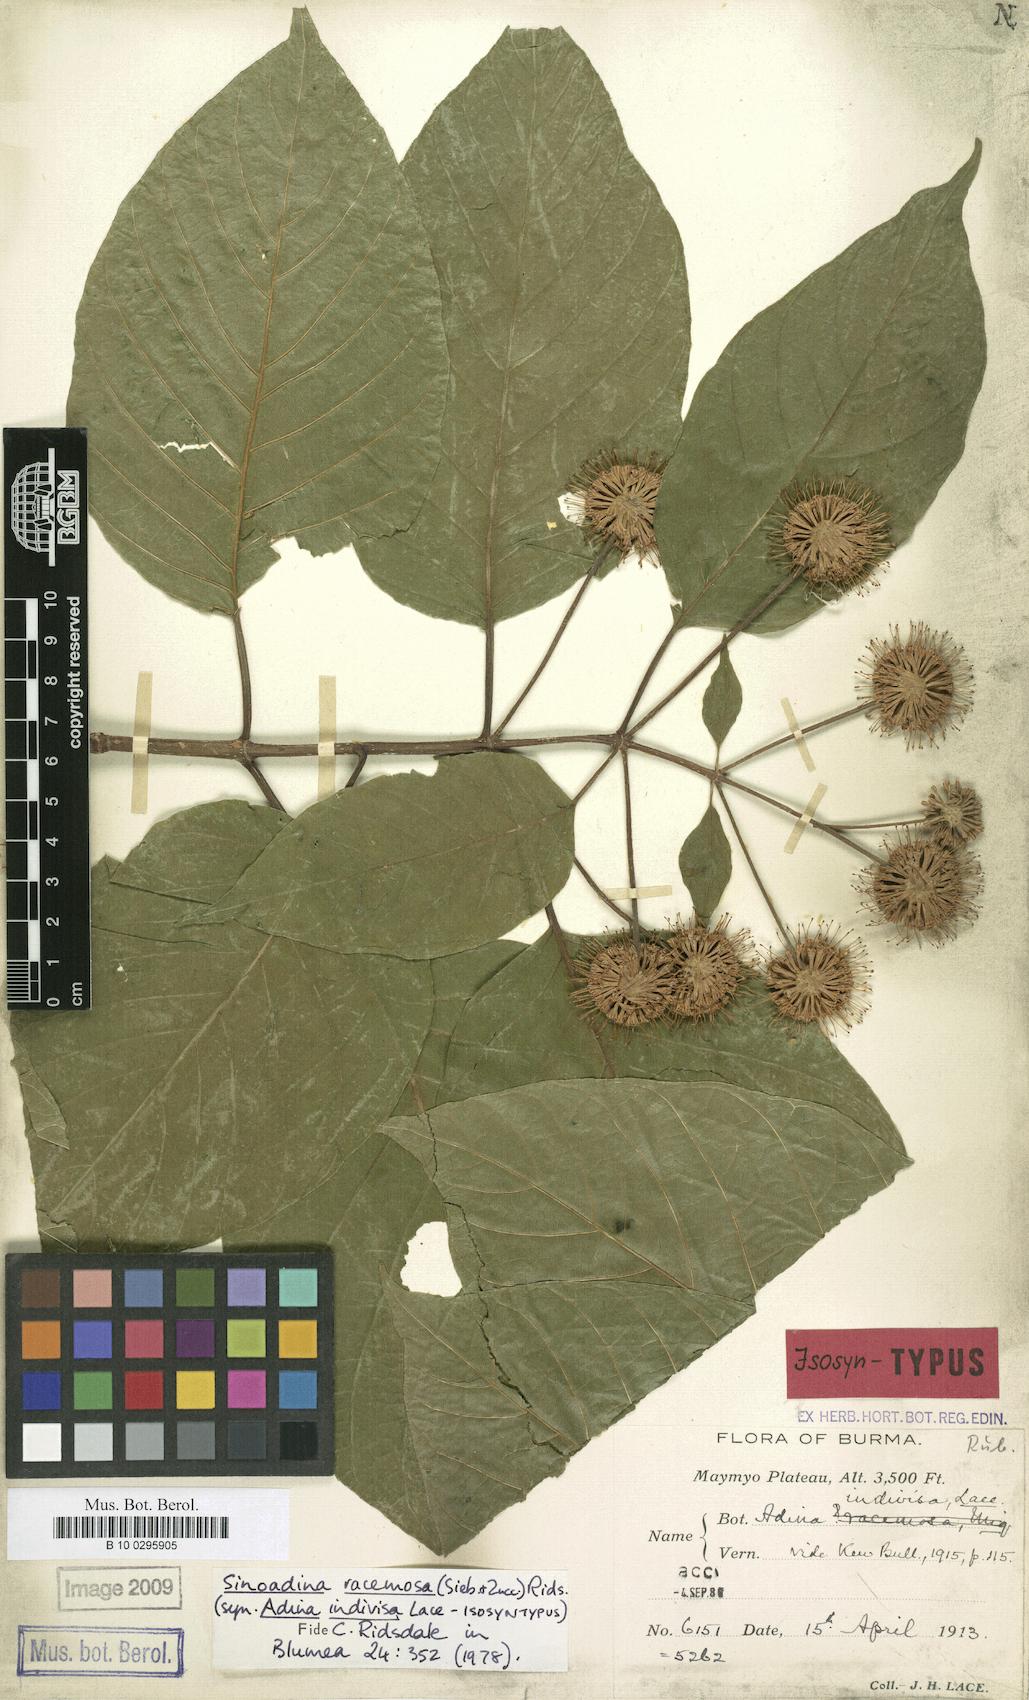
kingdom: Plantae
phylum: Tracheophyta
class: Magnoliopsida
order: Gentianales
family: Rubiaceae
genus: Adina
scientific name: Adina racemosa
